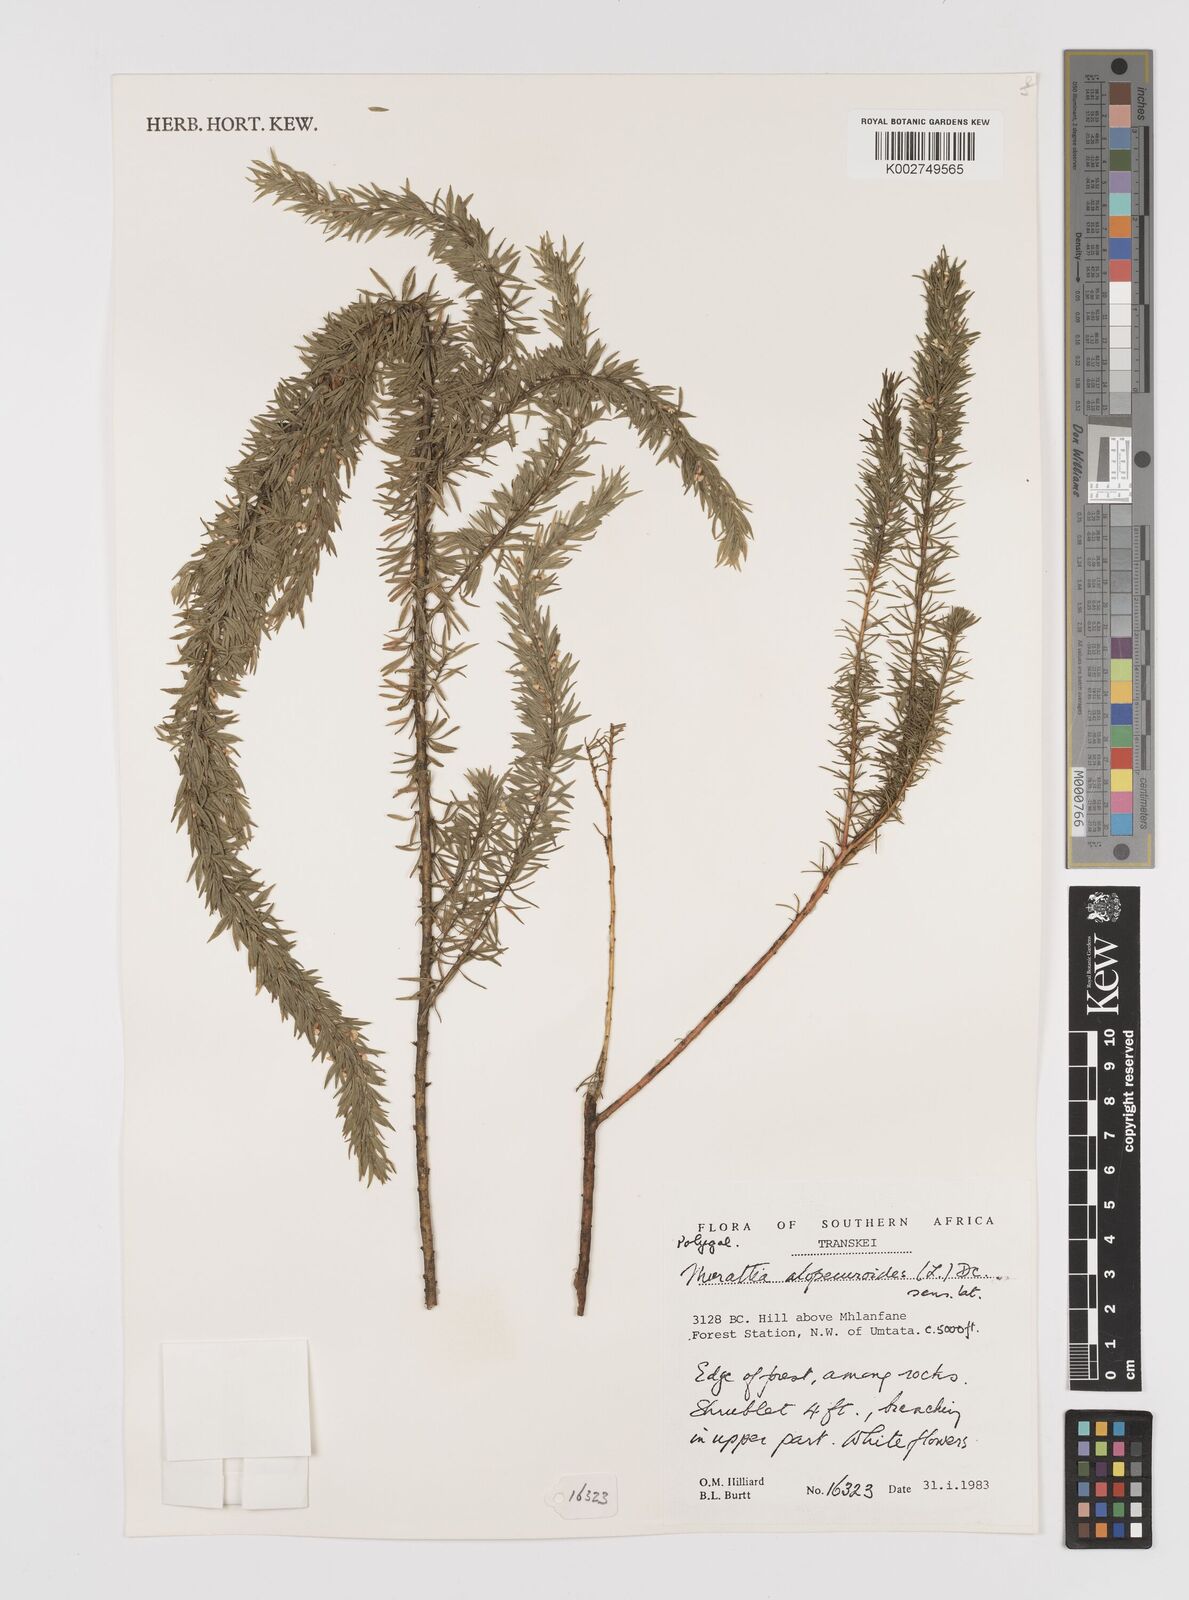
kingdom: Plantae
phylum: Tracheophyta
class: Magnoliopsida
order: Fabales
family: Polygalaceae
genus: Muraltia
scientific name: Muraltia alopecuroides
